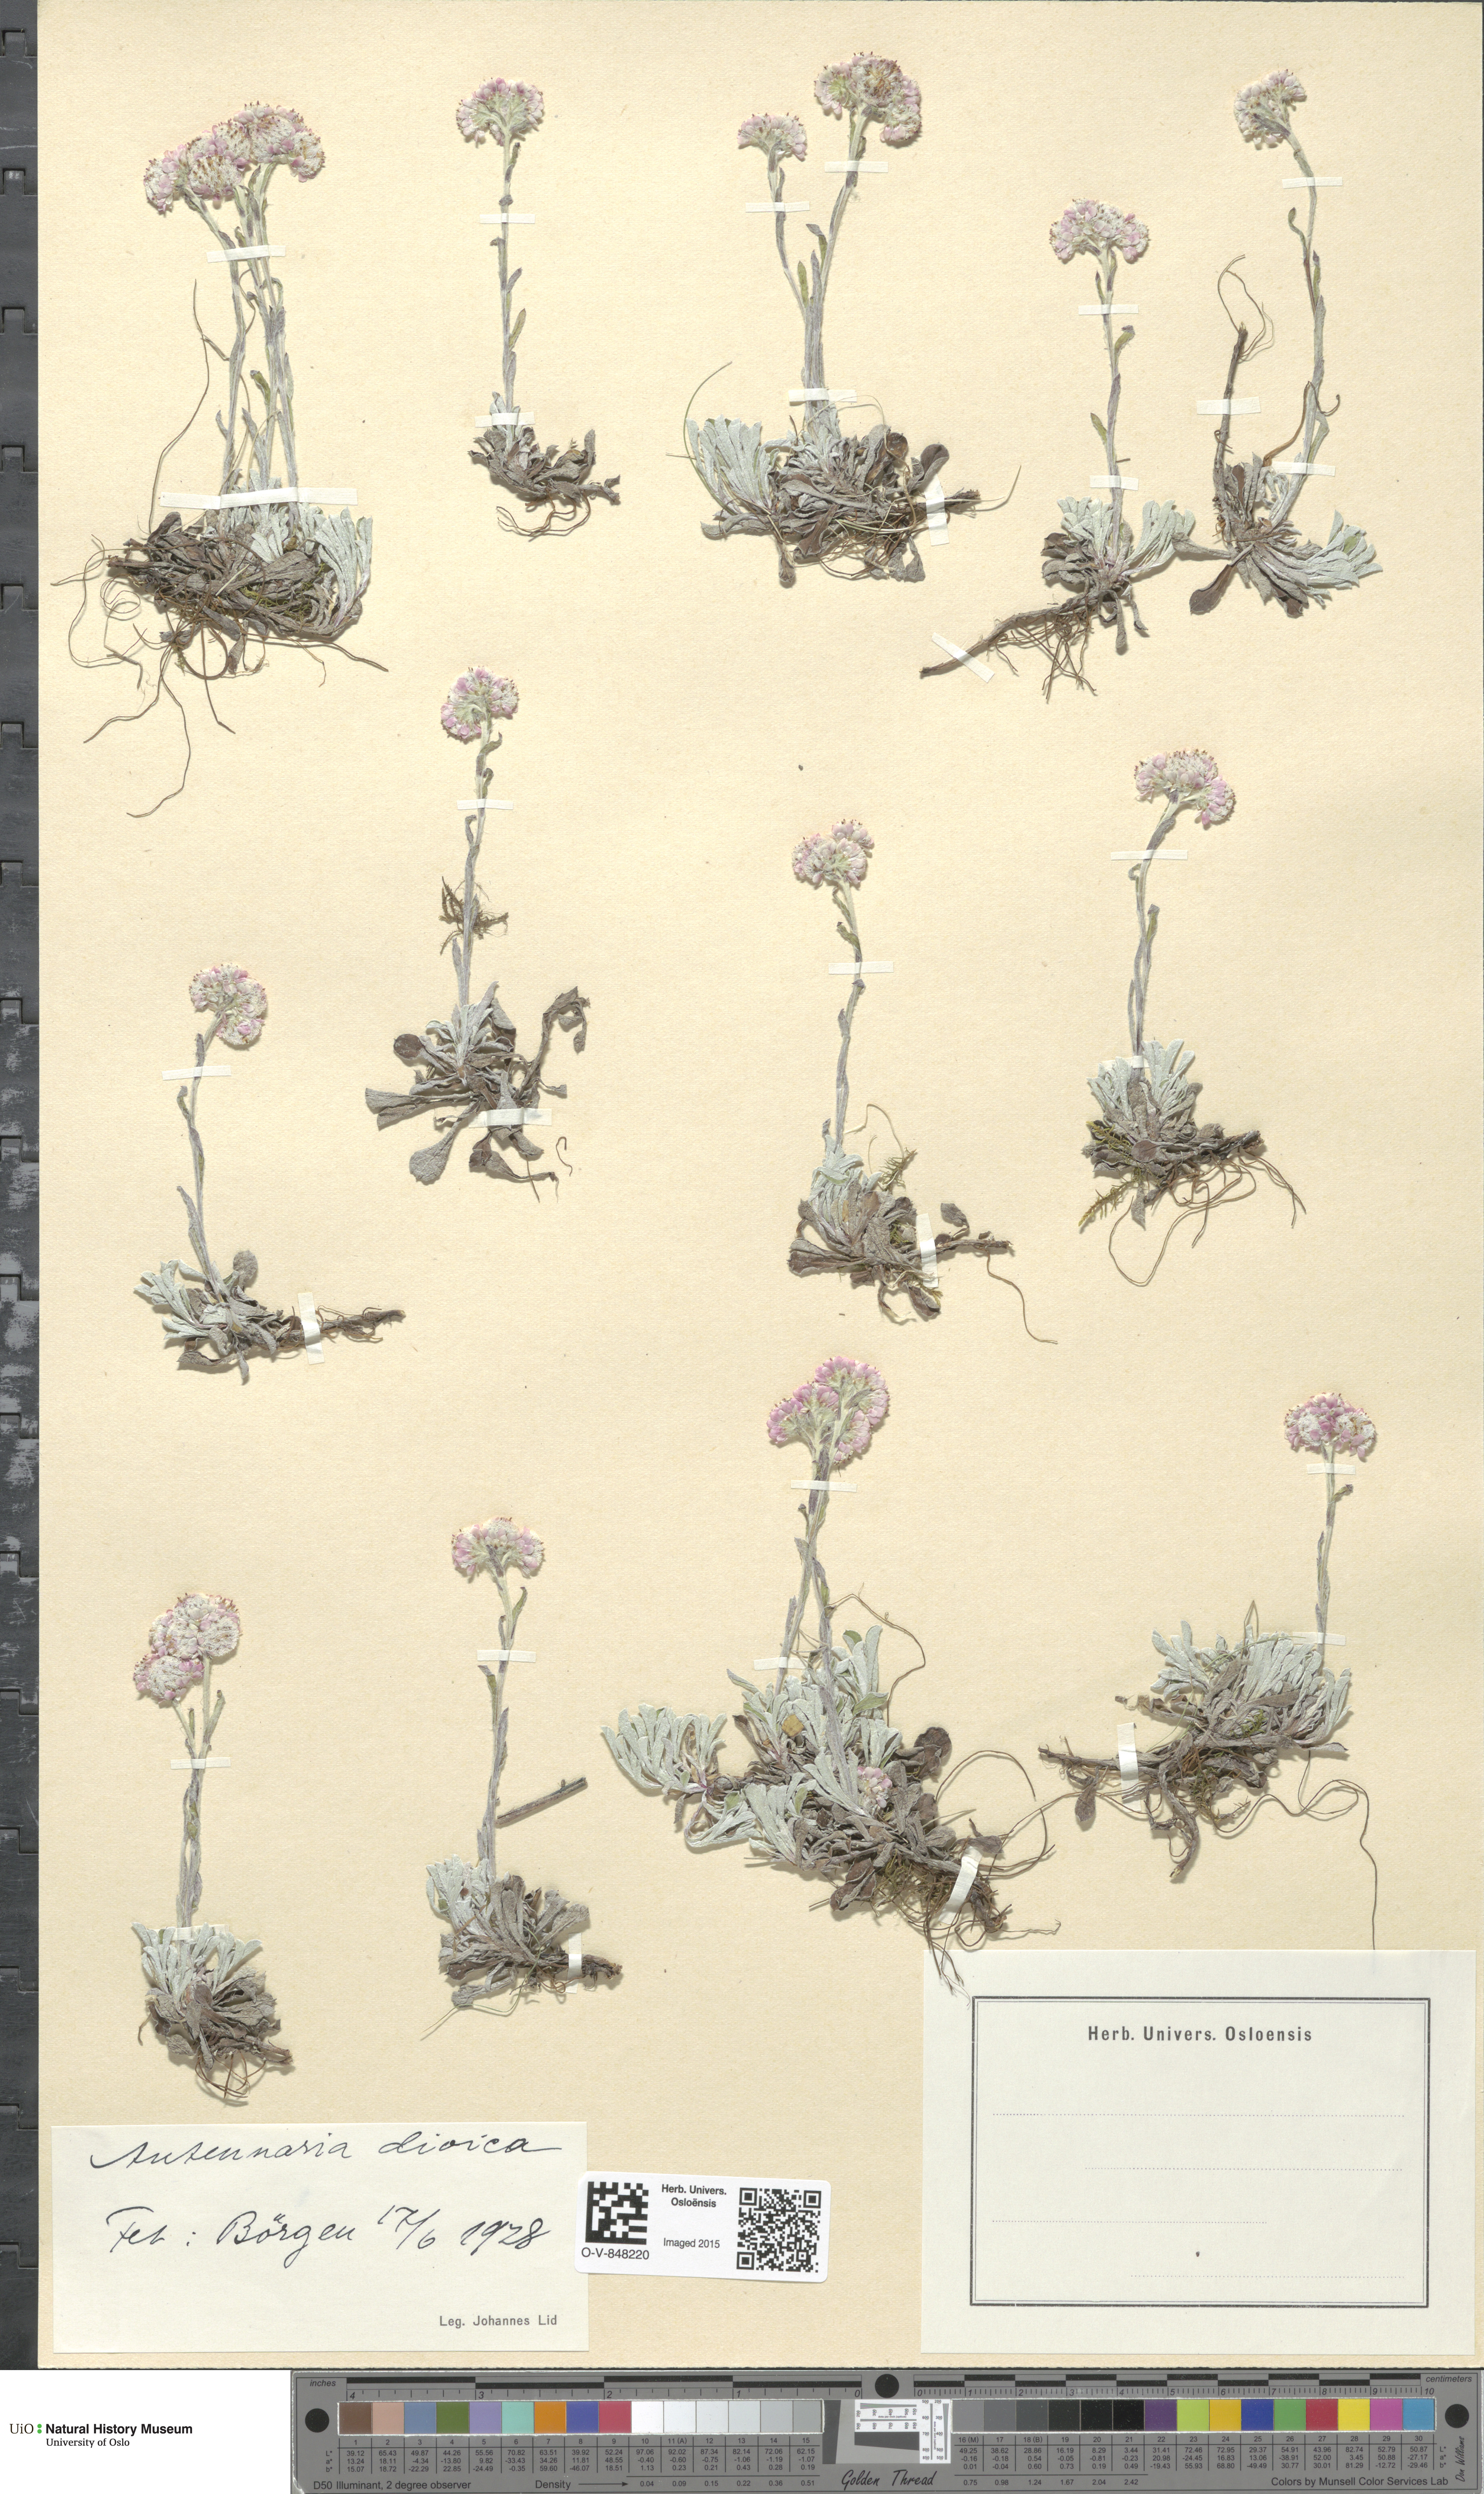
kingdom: Plantae
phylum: Tracheophyta
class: Magnoliopsida
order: Asterales
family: Asteraceae
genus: Antennaria
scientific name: Antennaria dioica
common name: Mountain everlasting
